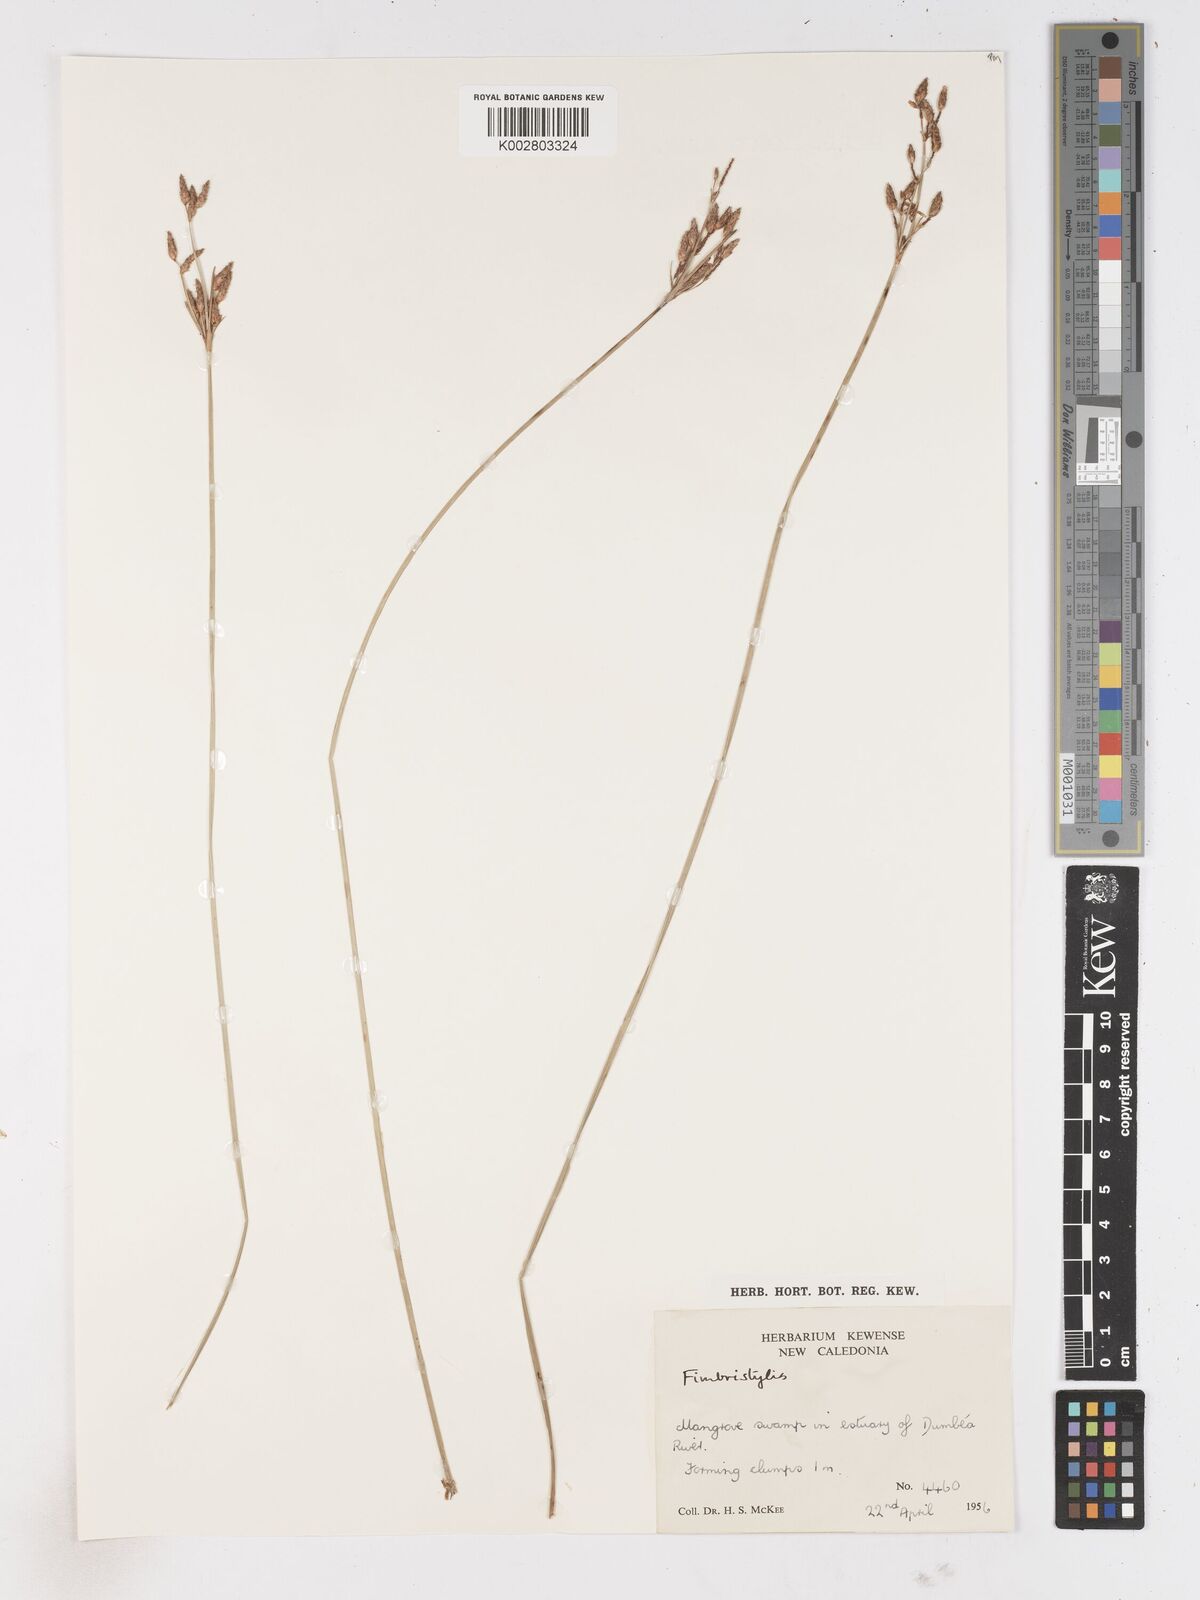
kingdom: Plantae
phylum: Tracheophyta
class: Liliopsida
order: Poales
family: Cyperaceae
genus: Fimbristylis
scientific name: Fimbristylis
